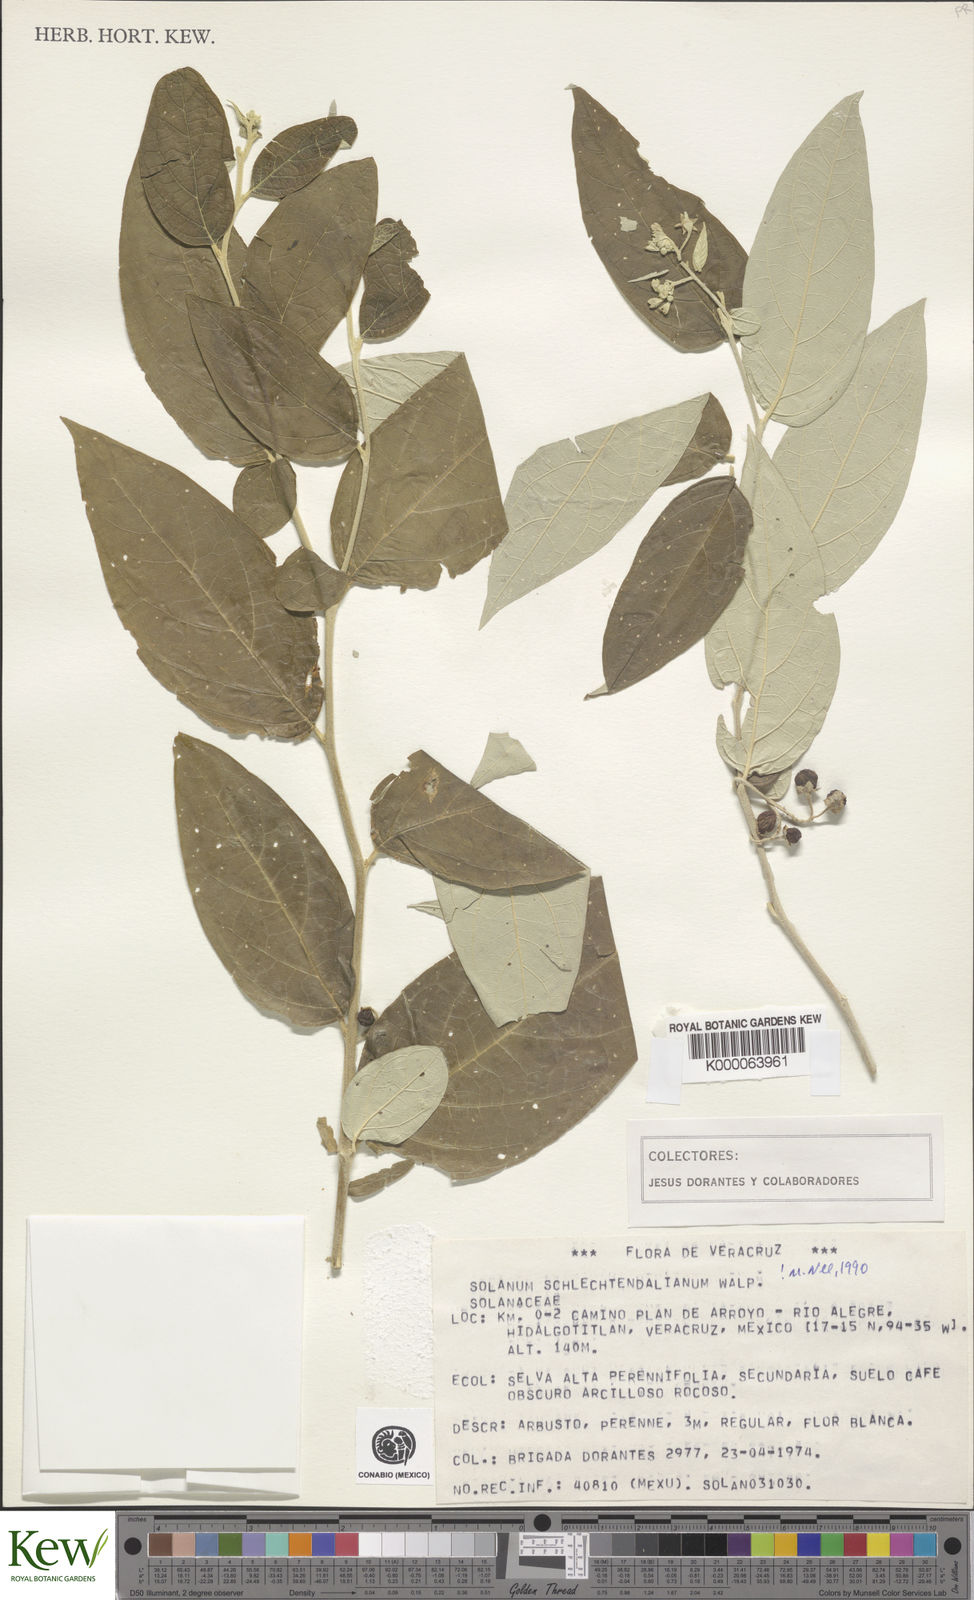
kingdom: Plantae
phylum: Tracheophyta
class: Magnoliopsida
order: Solanales
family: Solanaceae
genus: Solanum
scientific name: Solanum schlechtendalianum
